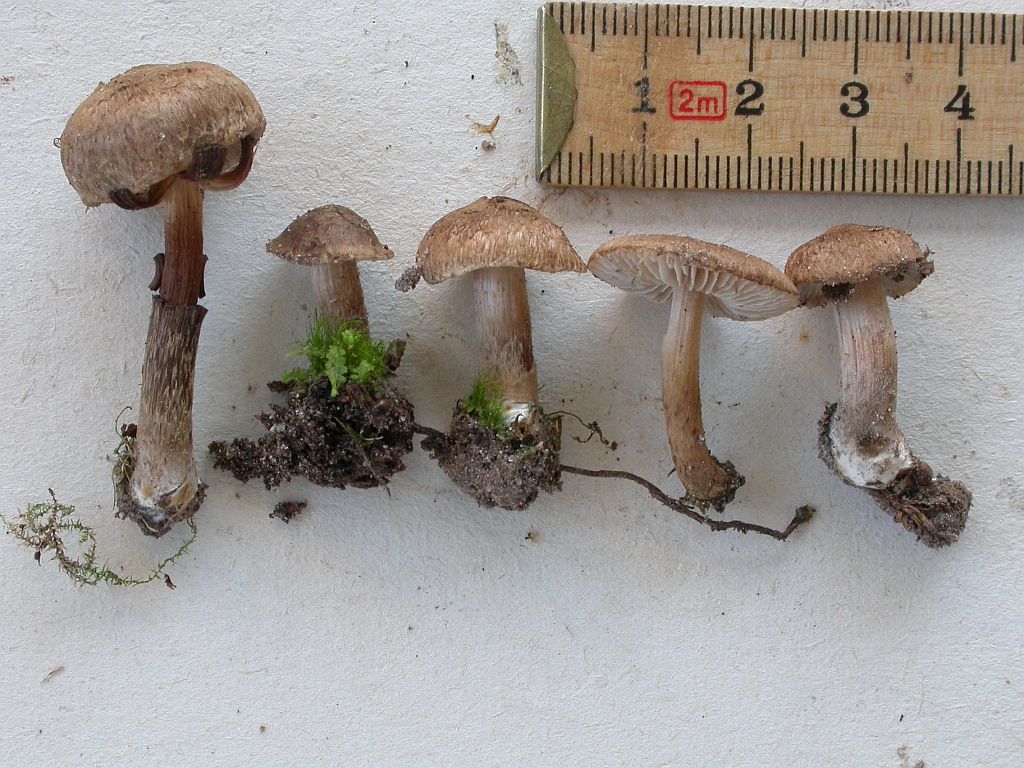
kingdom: Fungi
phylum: Basidiomycota
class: Agaricomycetes
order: Agaricales
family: Inocybaceae
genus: Inocybe
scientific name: Inocybe subcarpta
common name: plantage-trævlhat
